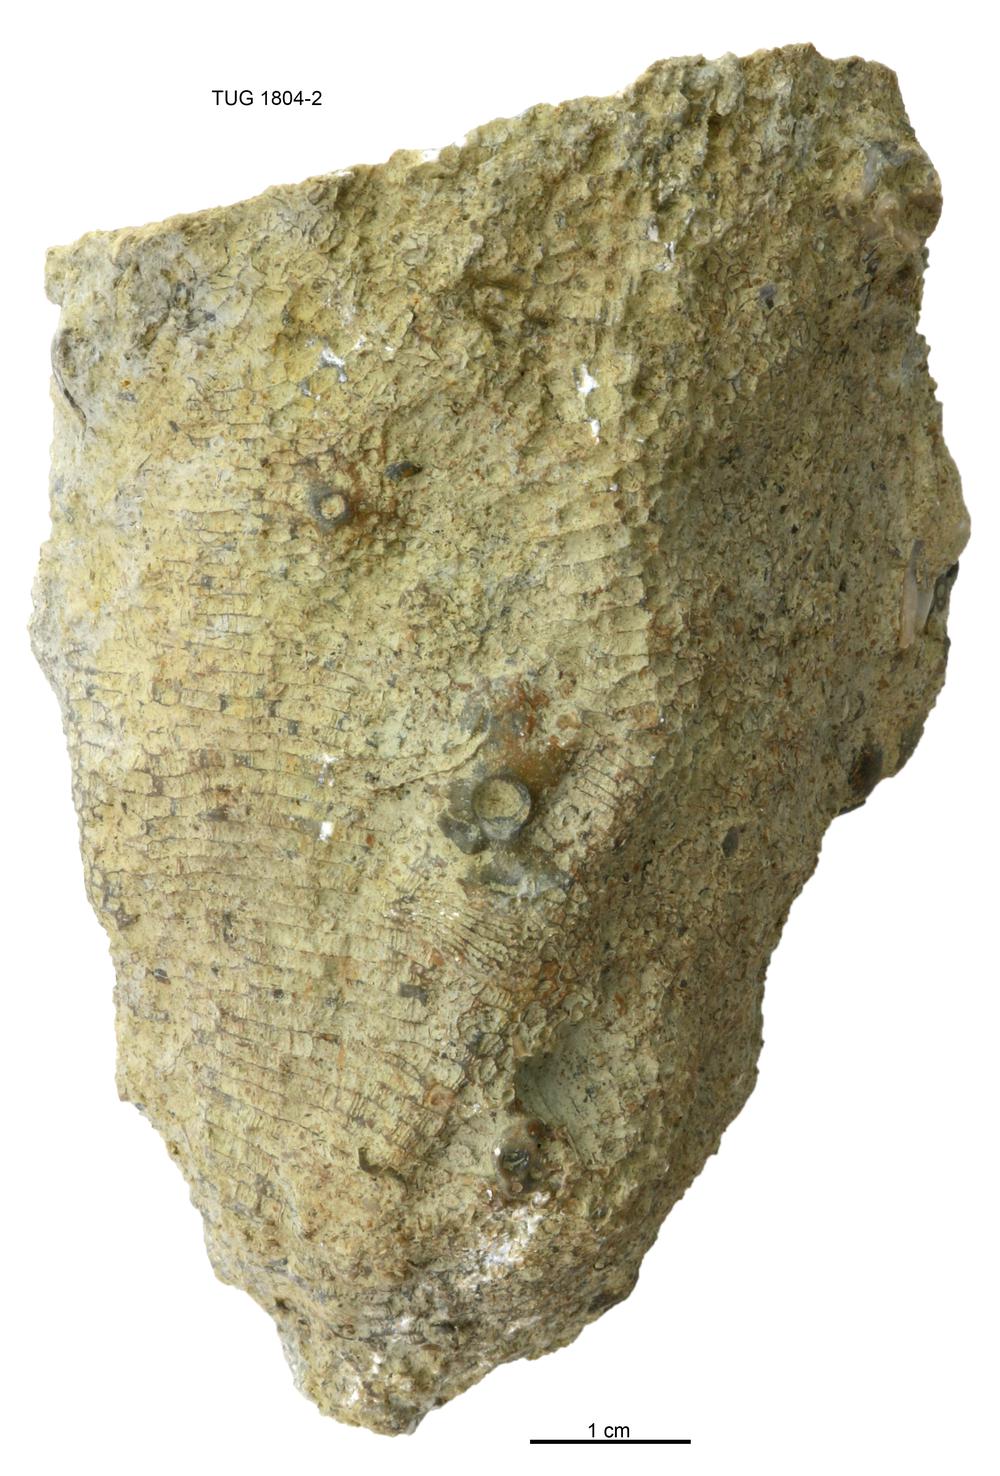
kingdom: Animalia
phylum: Cnidaria
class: Anthozoa
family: Favositidae
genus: Favosites
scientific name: Favosites
